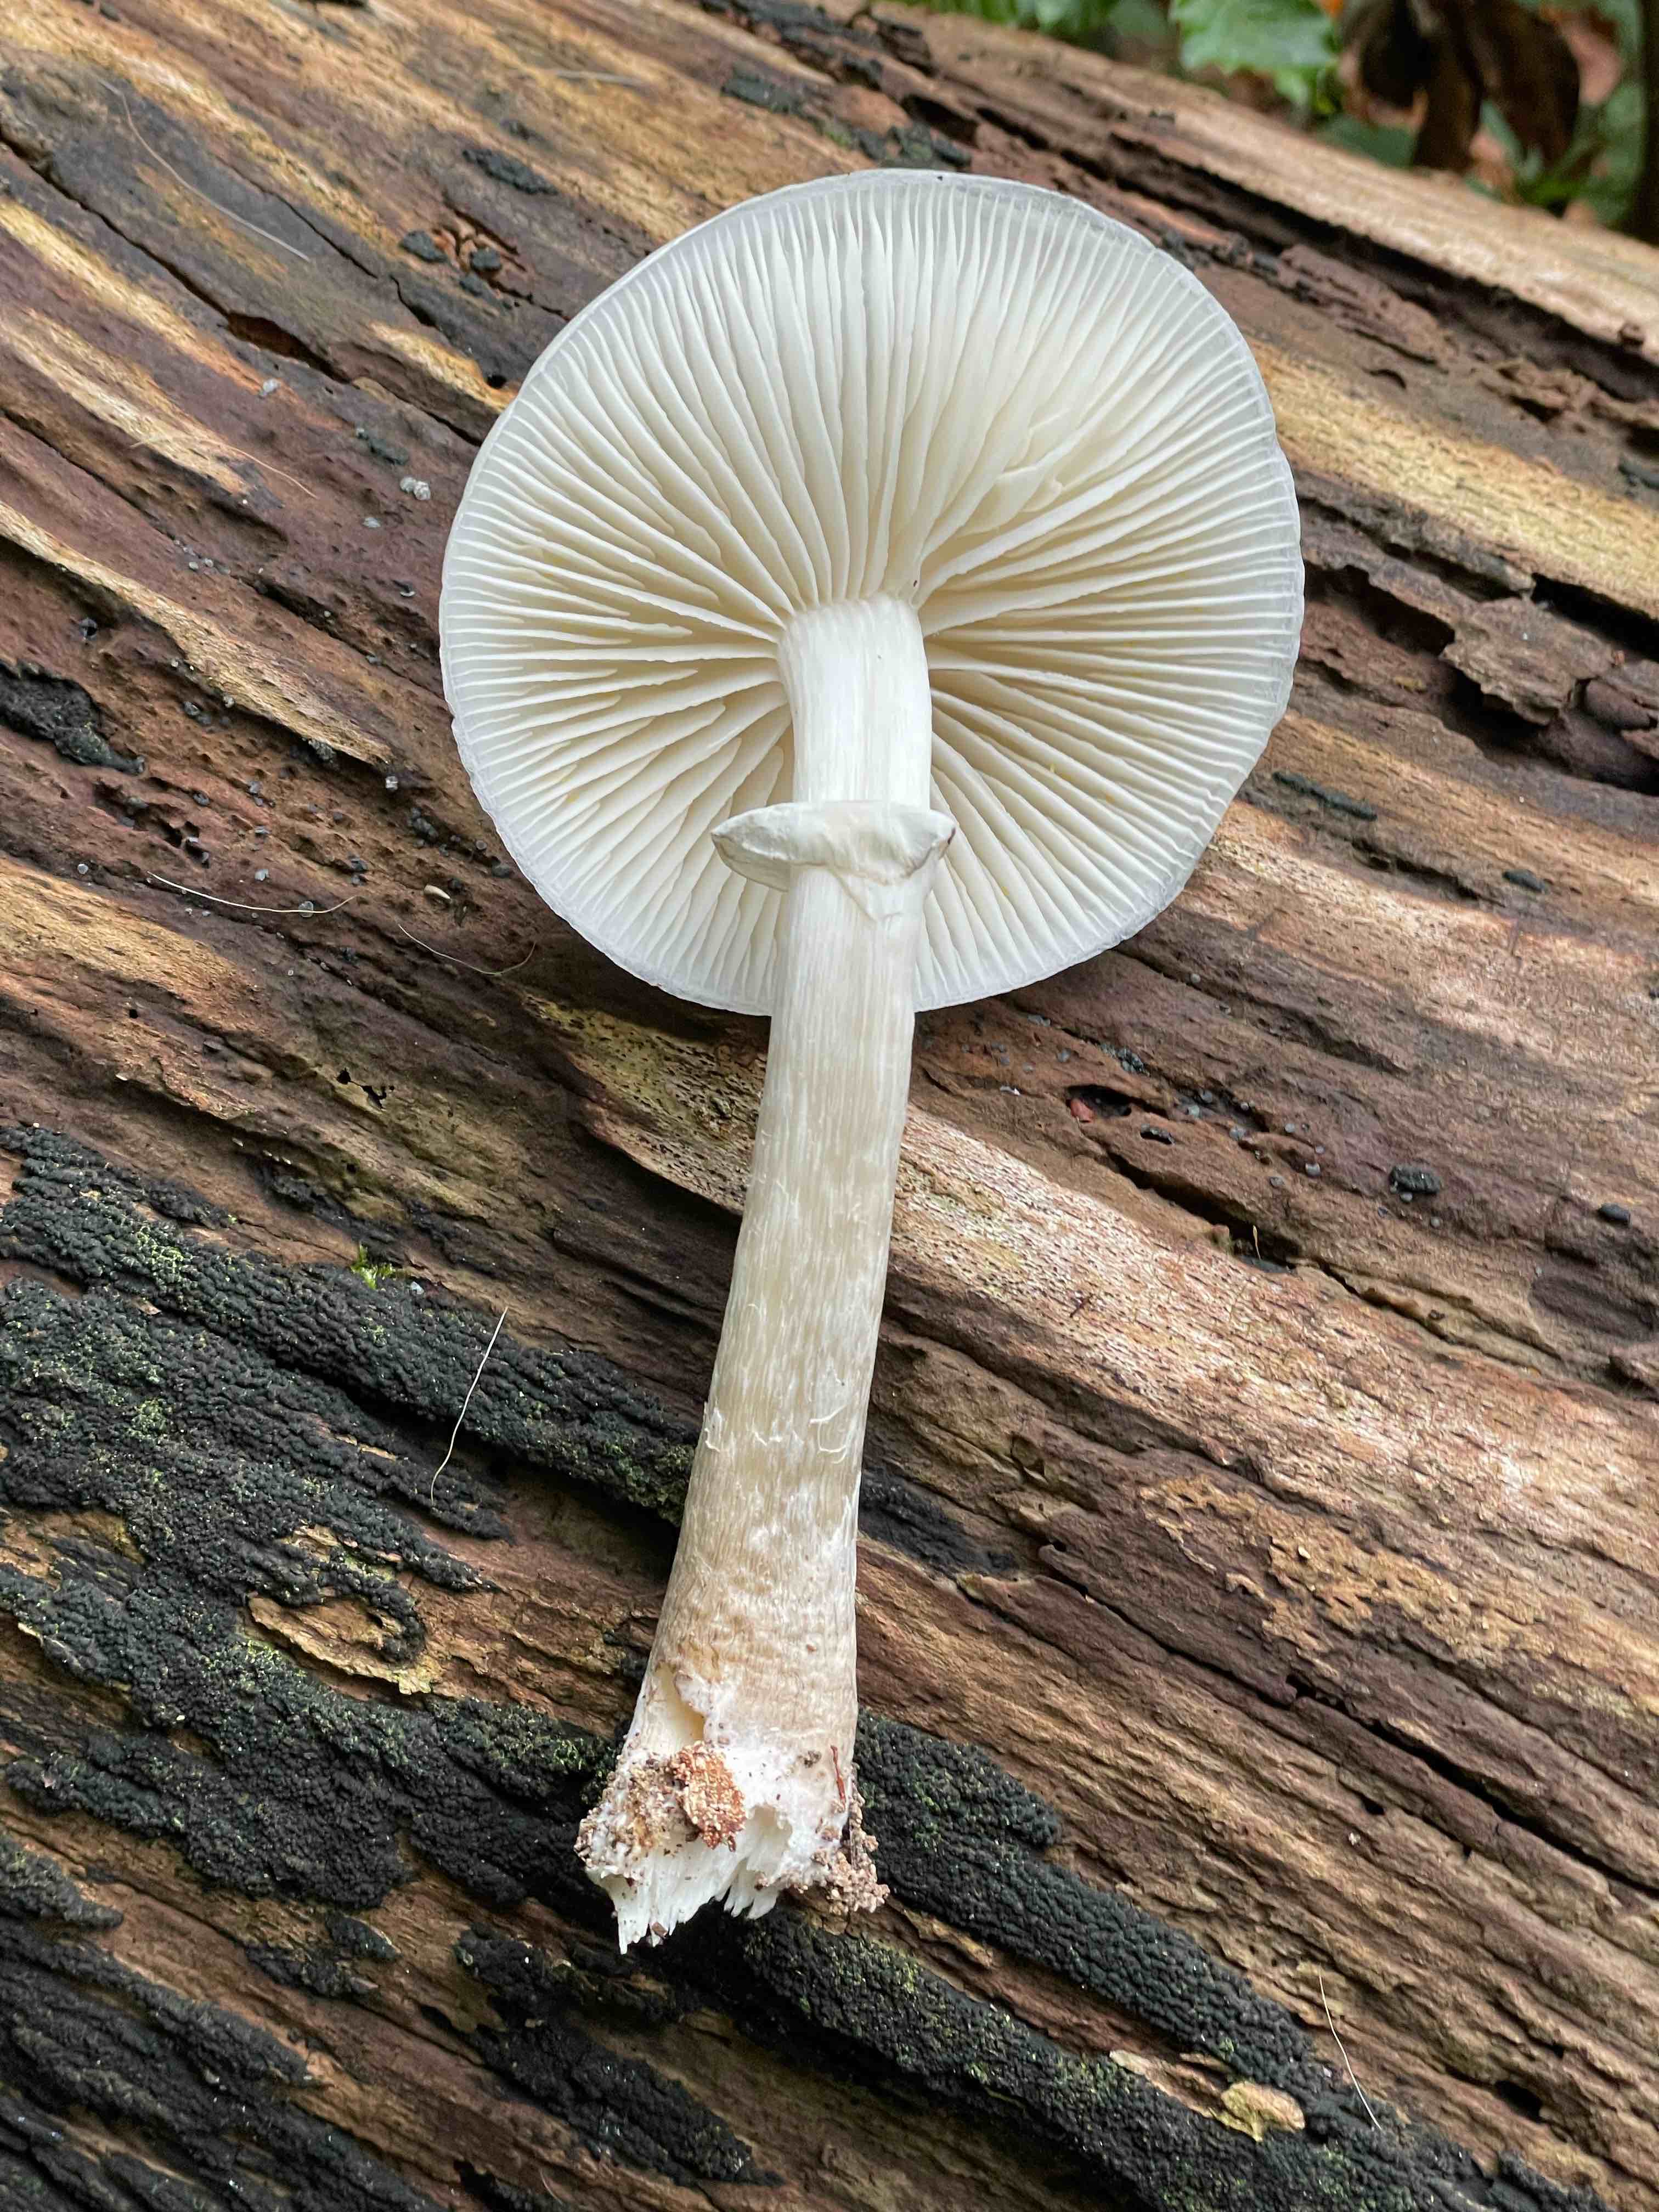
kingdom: Fungi
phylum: Basidiomycota
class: Agaricomycetes
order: Agaricales
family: Physalacriaceae
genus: Mucidula
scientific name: Mucidula mucida
